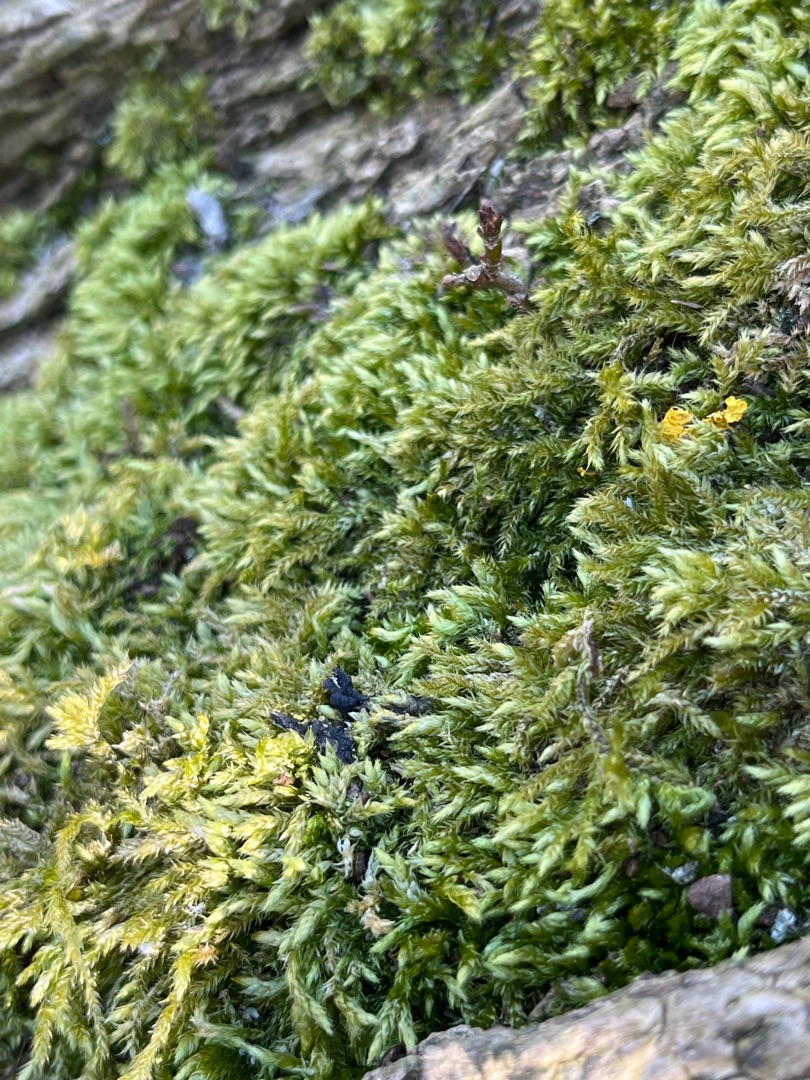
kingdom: Plantae
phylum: Bryophyta
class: Bryopsida
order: Hypnales
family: Brachytheciaceae
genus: Brachythecium
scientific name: Brachythecium rutabulum
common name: Almindelig kortkapsel
